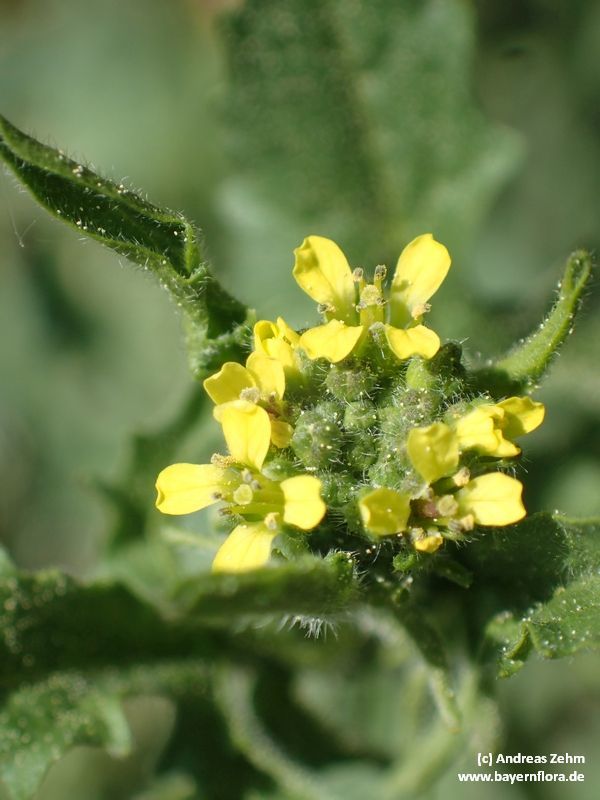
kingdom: Plantae
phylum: Tracheophyta
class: Magnoliopsida
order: Brassicales
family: Brassicaceae
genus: Sisymbrium
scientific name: Sisymbrium officinale
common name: Hedge mustard
